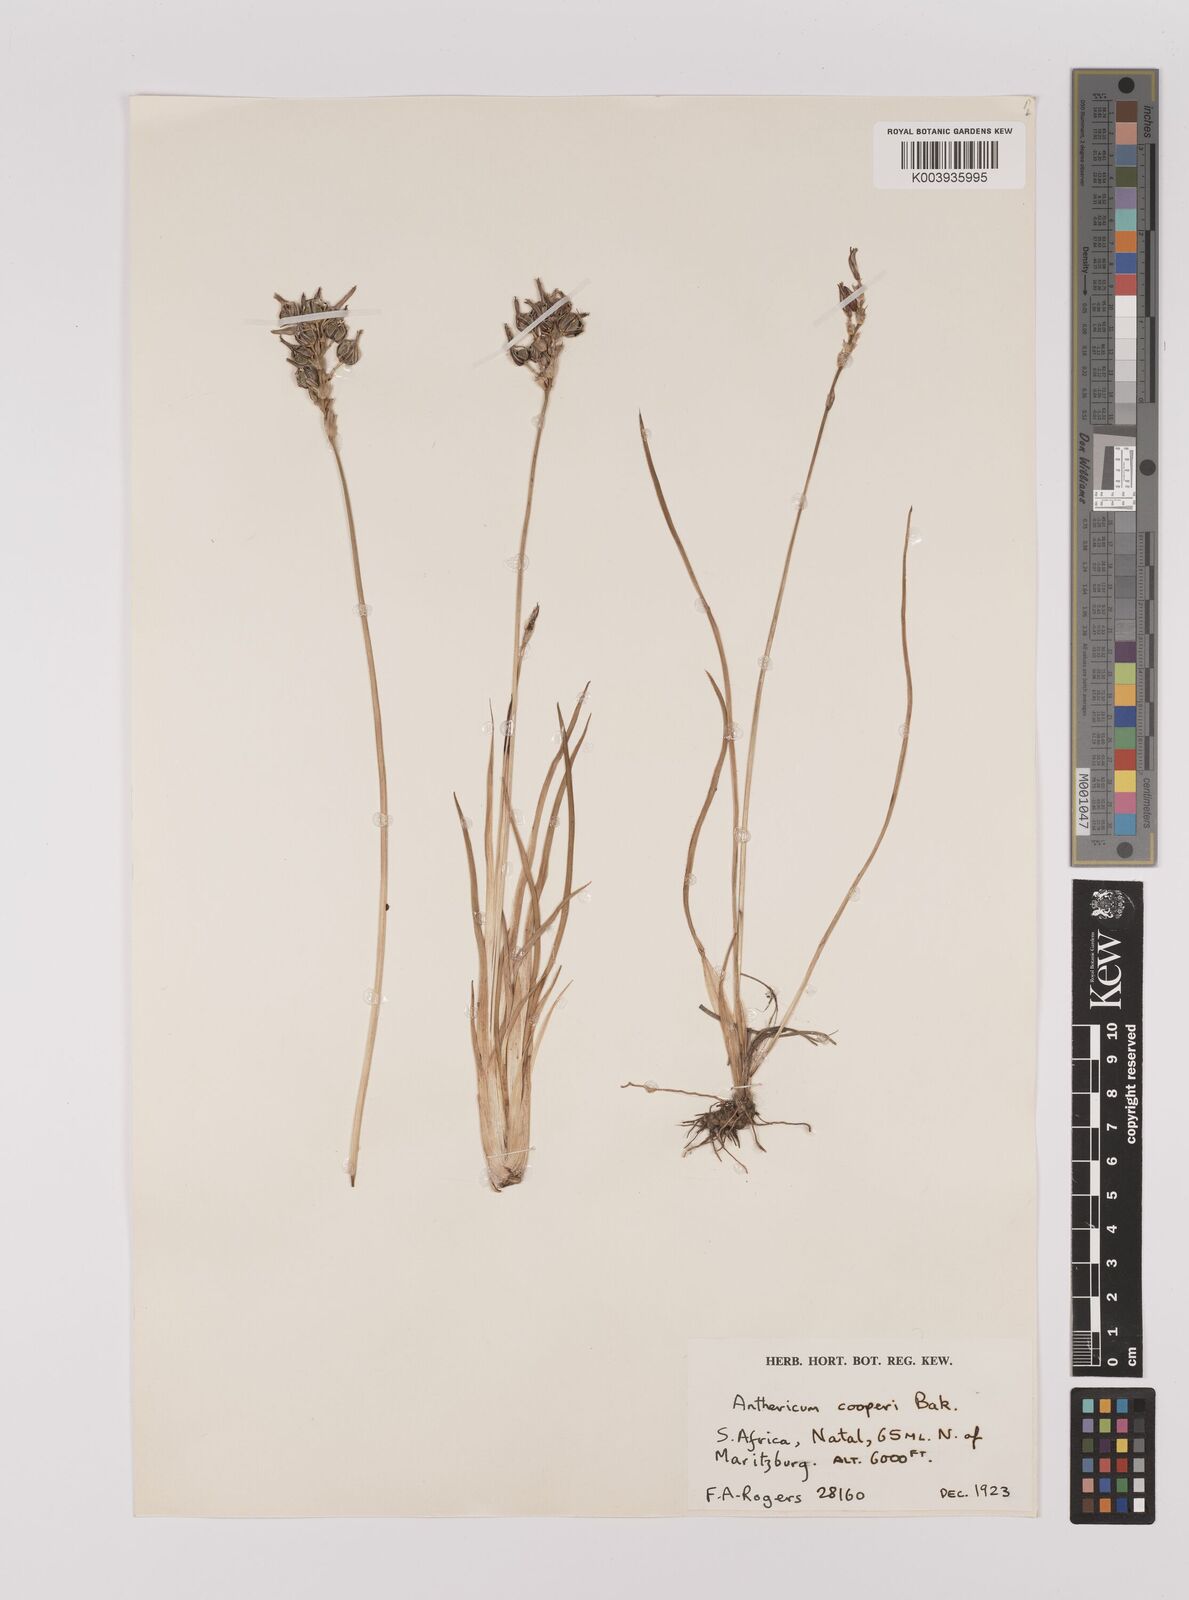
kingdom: Plantae
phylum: Tracheophyta
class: Liliopsida
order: Asparagales
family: Asparagaceae
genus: Chlorophytum
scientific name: Chlorophytum cooperi
